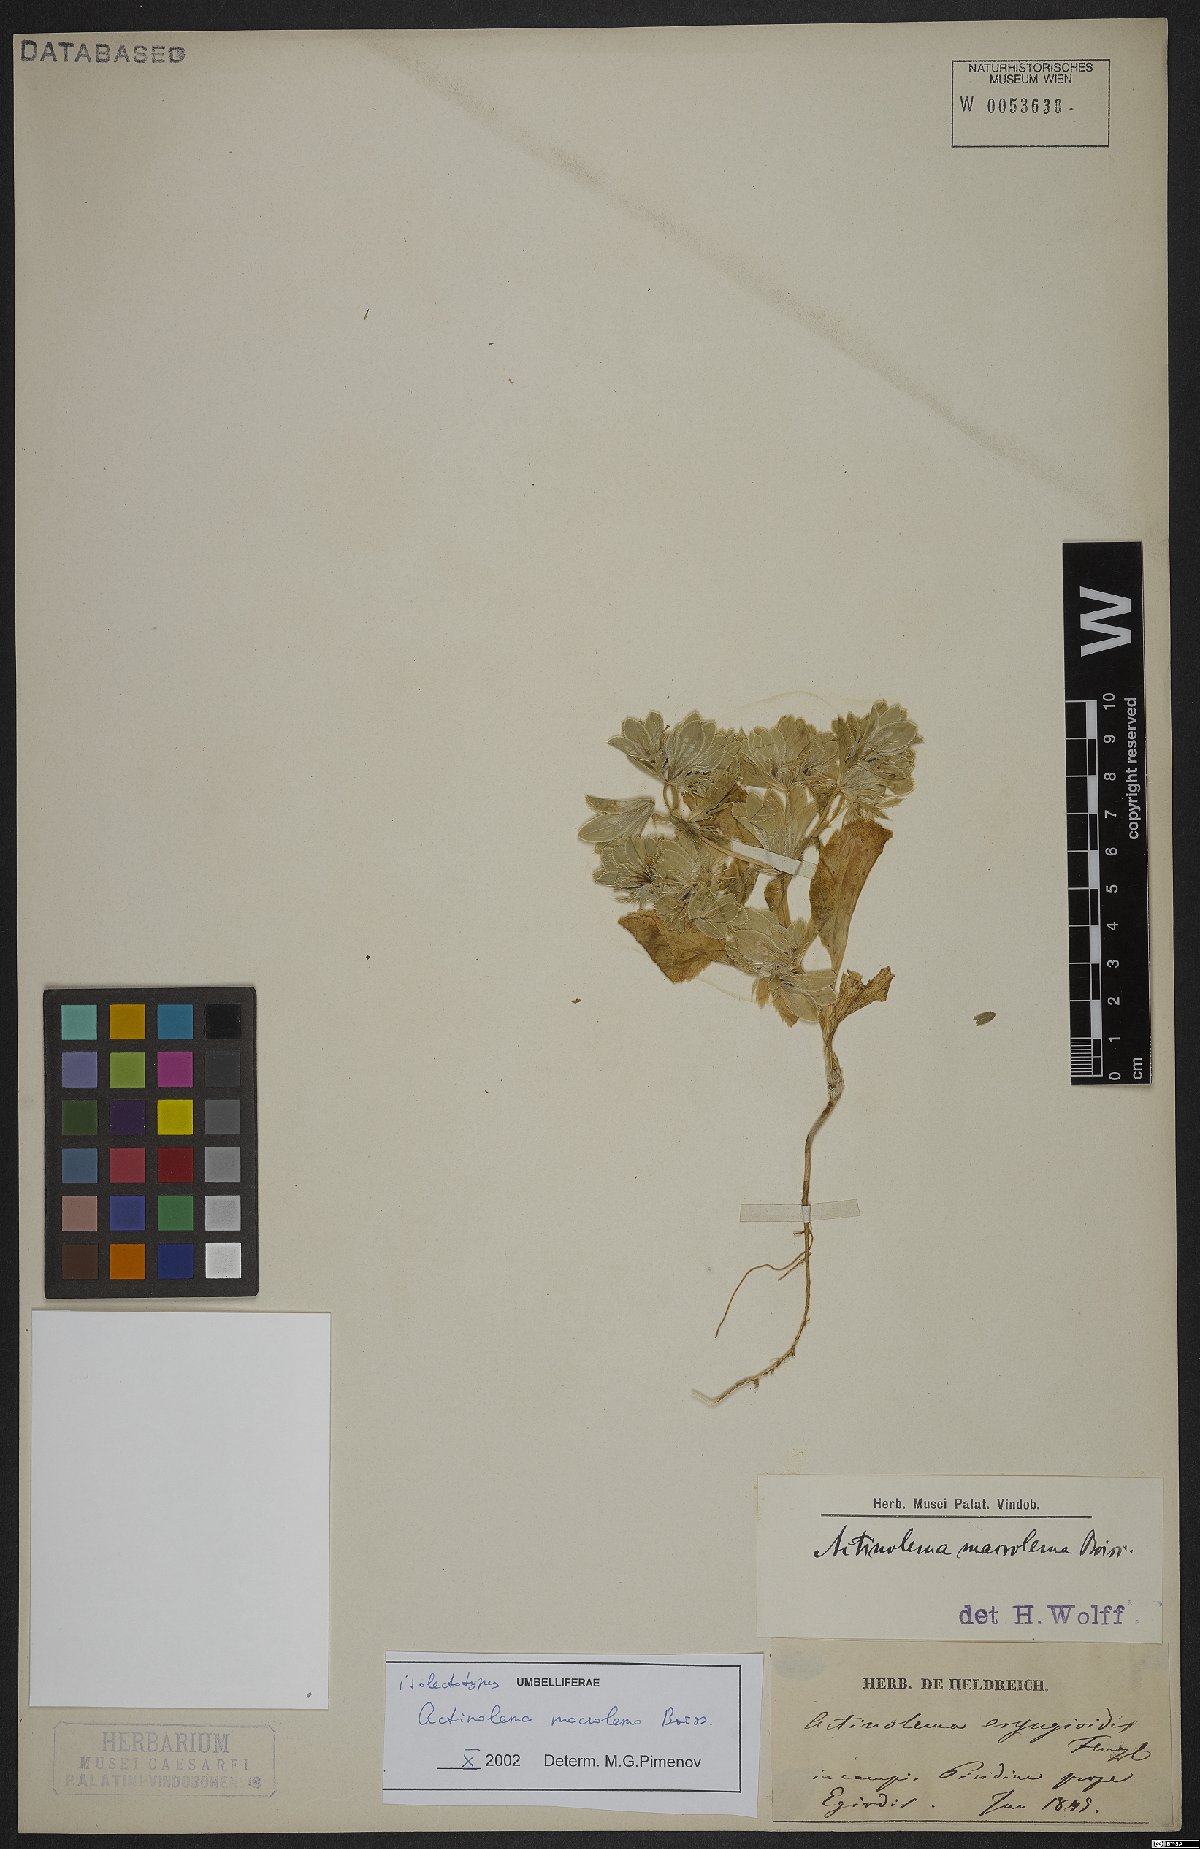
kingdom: Plantae
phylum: Tracheophyta
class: Magnoliopsida
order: Apiales
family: Apiaceae
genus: Actinolema
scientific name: Actinolema macrolema
